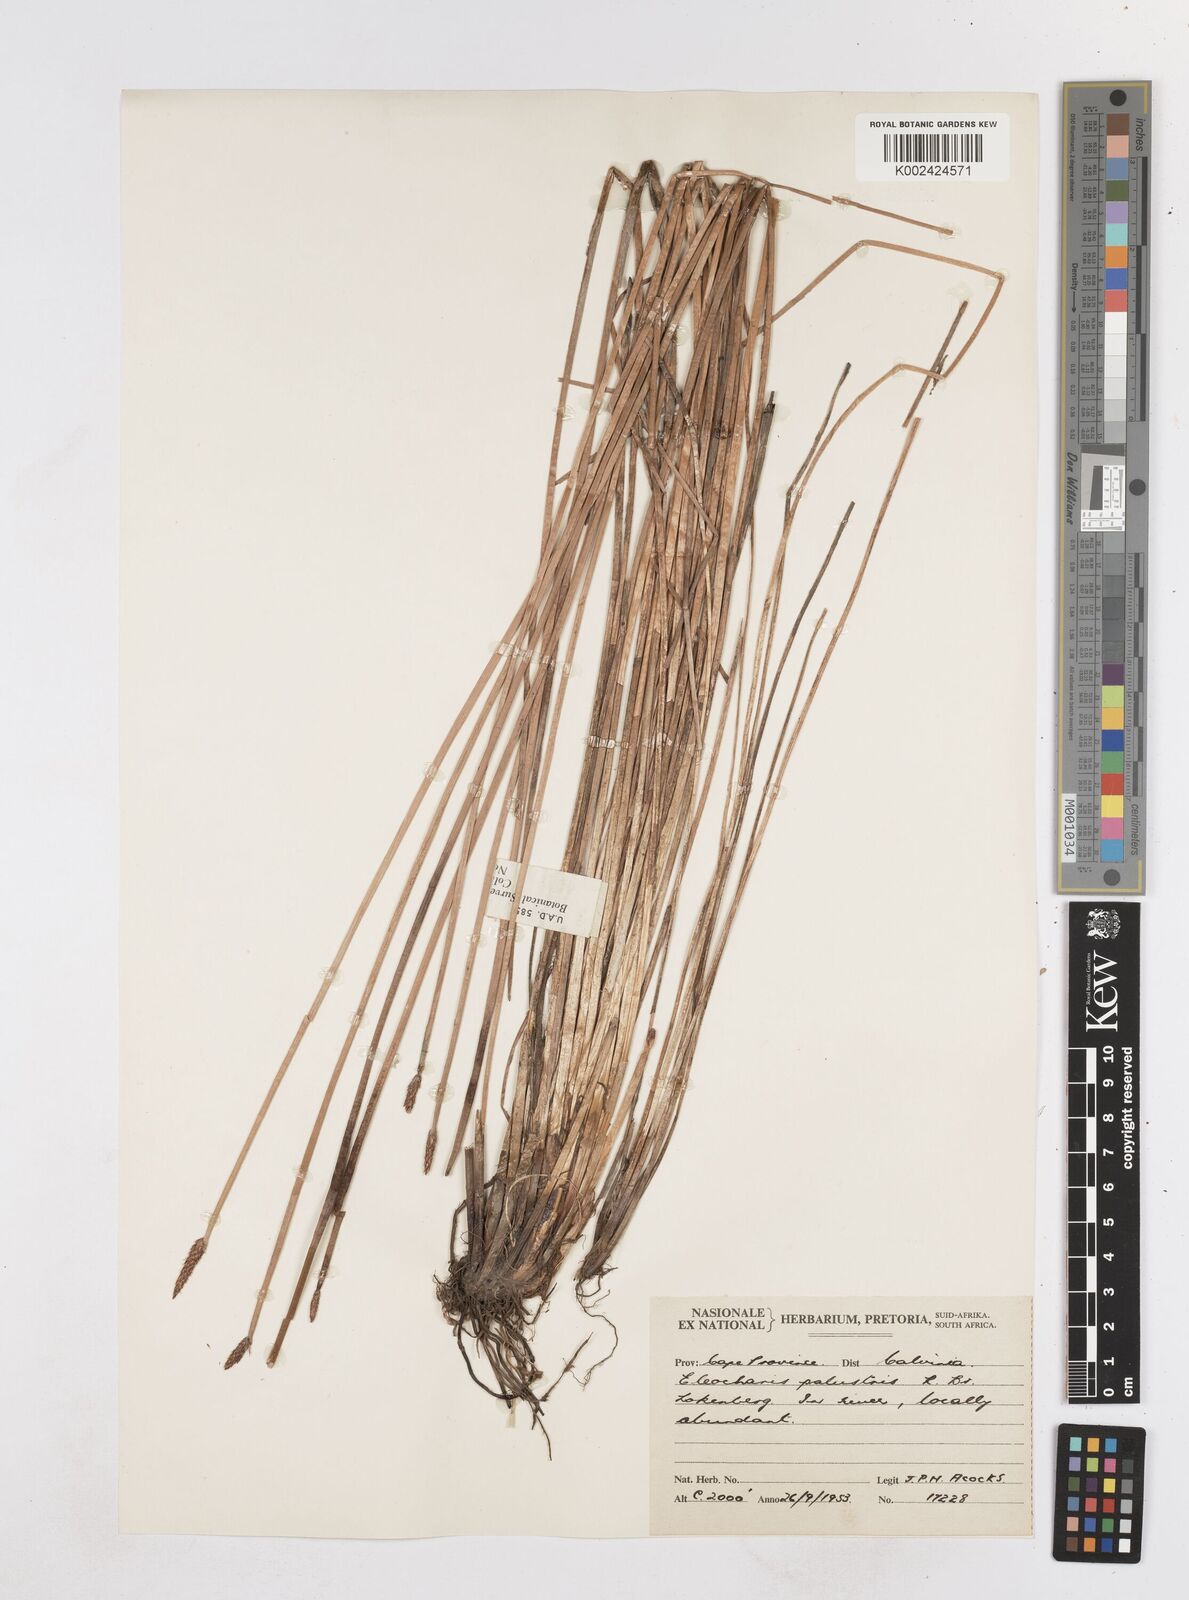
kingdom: Plantae
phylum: Tracheophyta
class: Liliopsida
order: Poales
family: Cyperaceae
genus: Eleocharis
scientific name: Eleocharis palustris
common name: Common spike-rush
